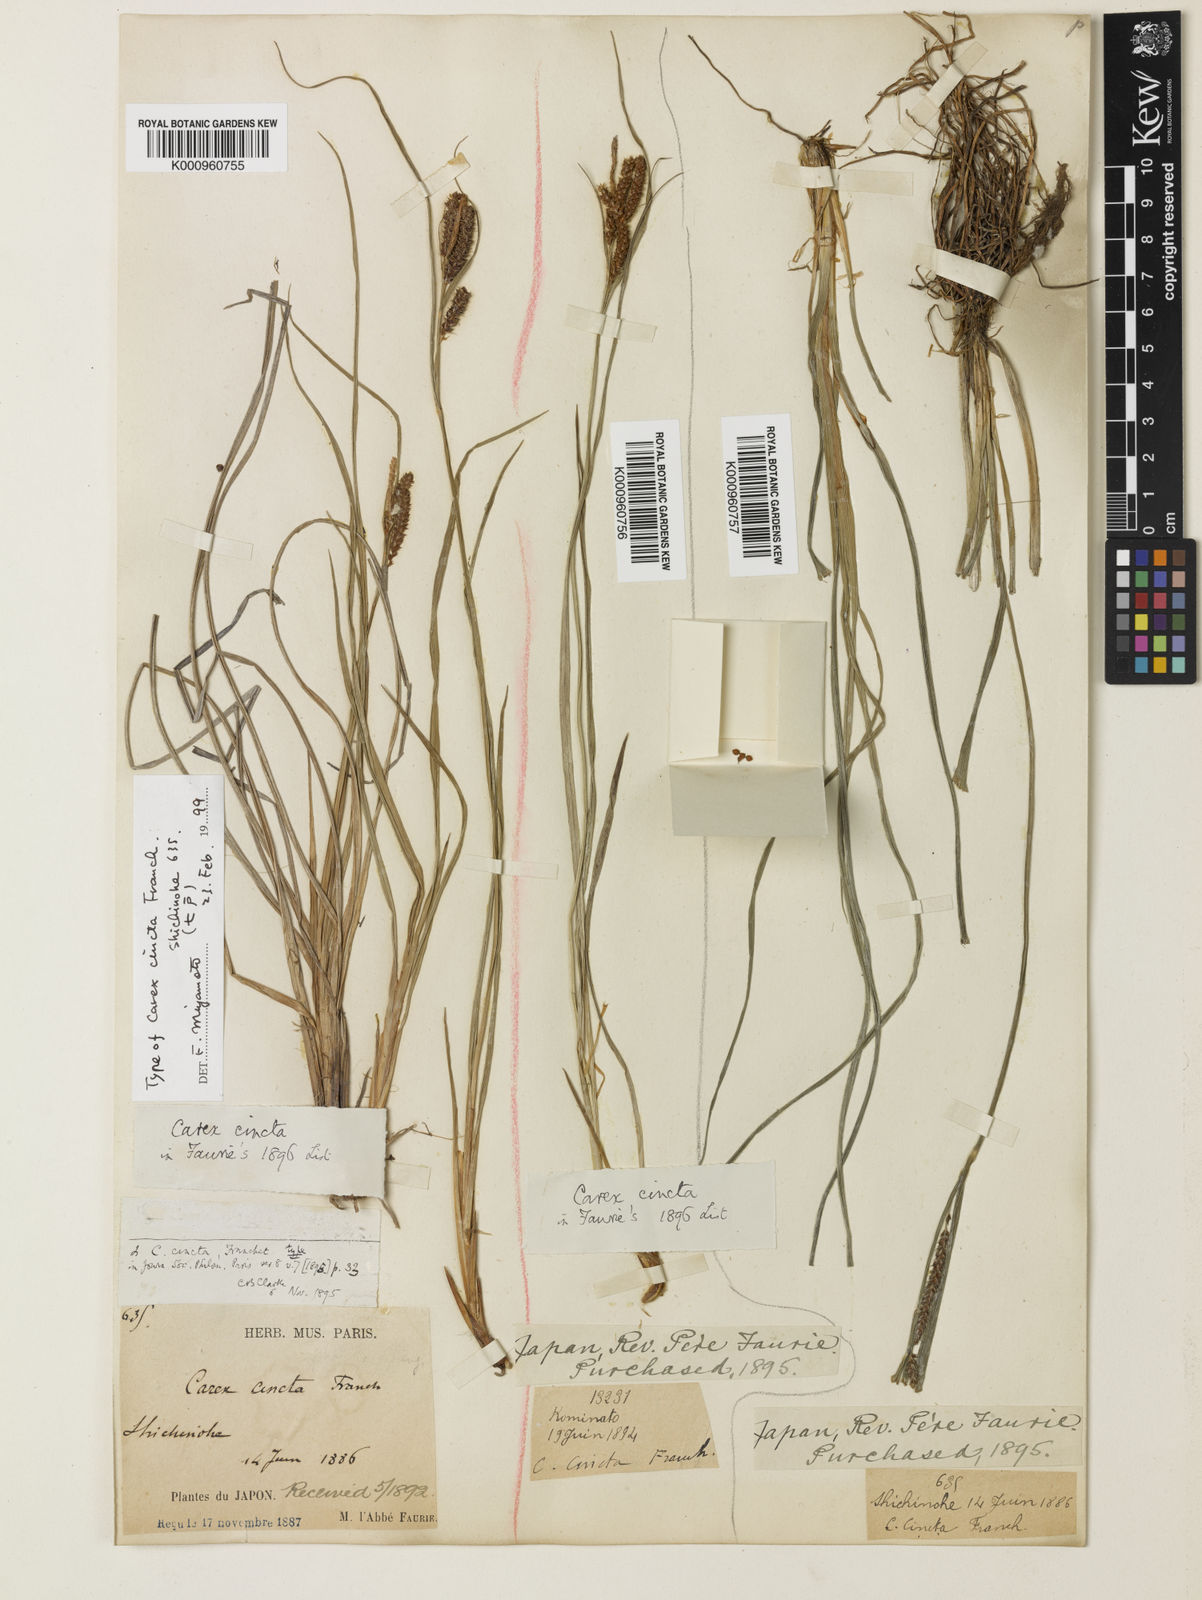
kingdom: Plantae
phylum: Tracheophyta
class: Liliopsida
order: Poales
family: Cyperaceae
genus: Carex
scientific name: Carex phacota
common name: Lakeshore sedge
